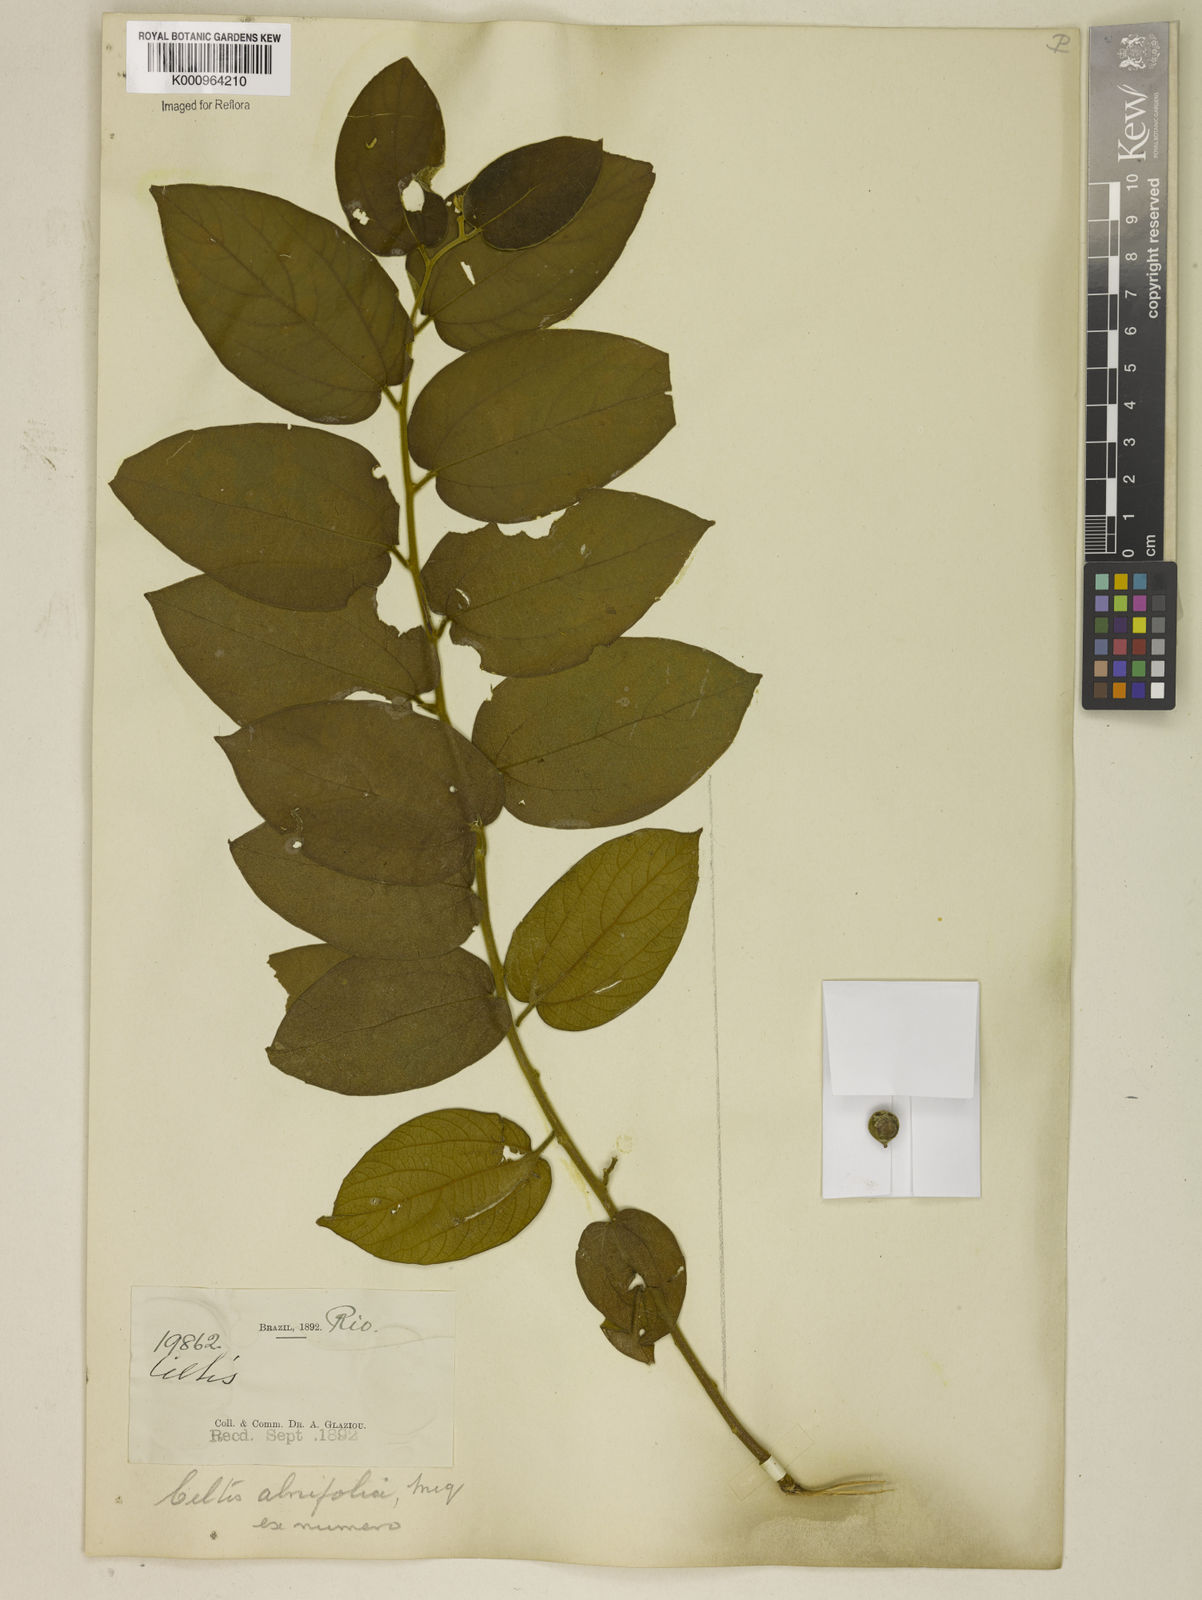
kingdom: Plantae
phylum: Tracheophyta
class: Magnoliopsida
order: Rosales
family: Cannabaceae
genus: Celtis
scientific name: Celtis iguanaea
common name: Iguana hackberry
